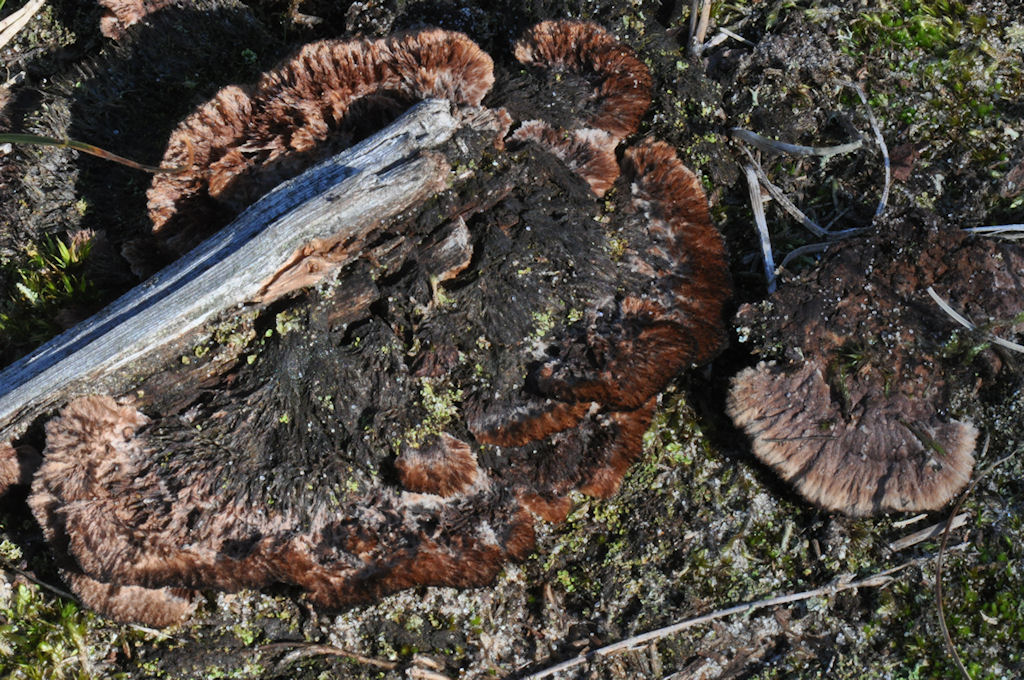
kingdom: Fungi
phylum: Basidiomycota
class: Agaricomycetes
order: Thelephorales
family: Thelephoraceae
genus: Thelephora
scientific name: Thelephora terrestris
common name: fliget frynsesvamp
